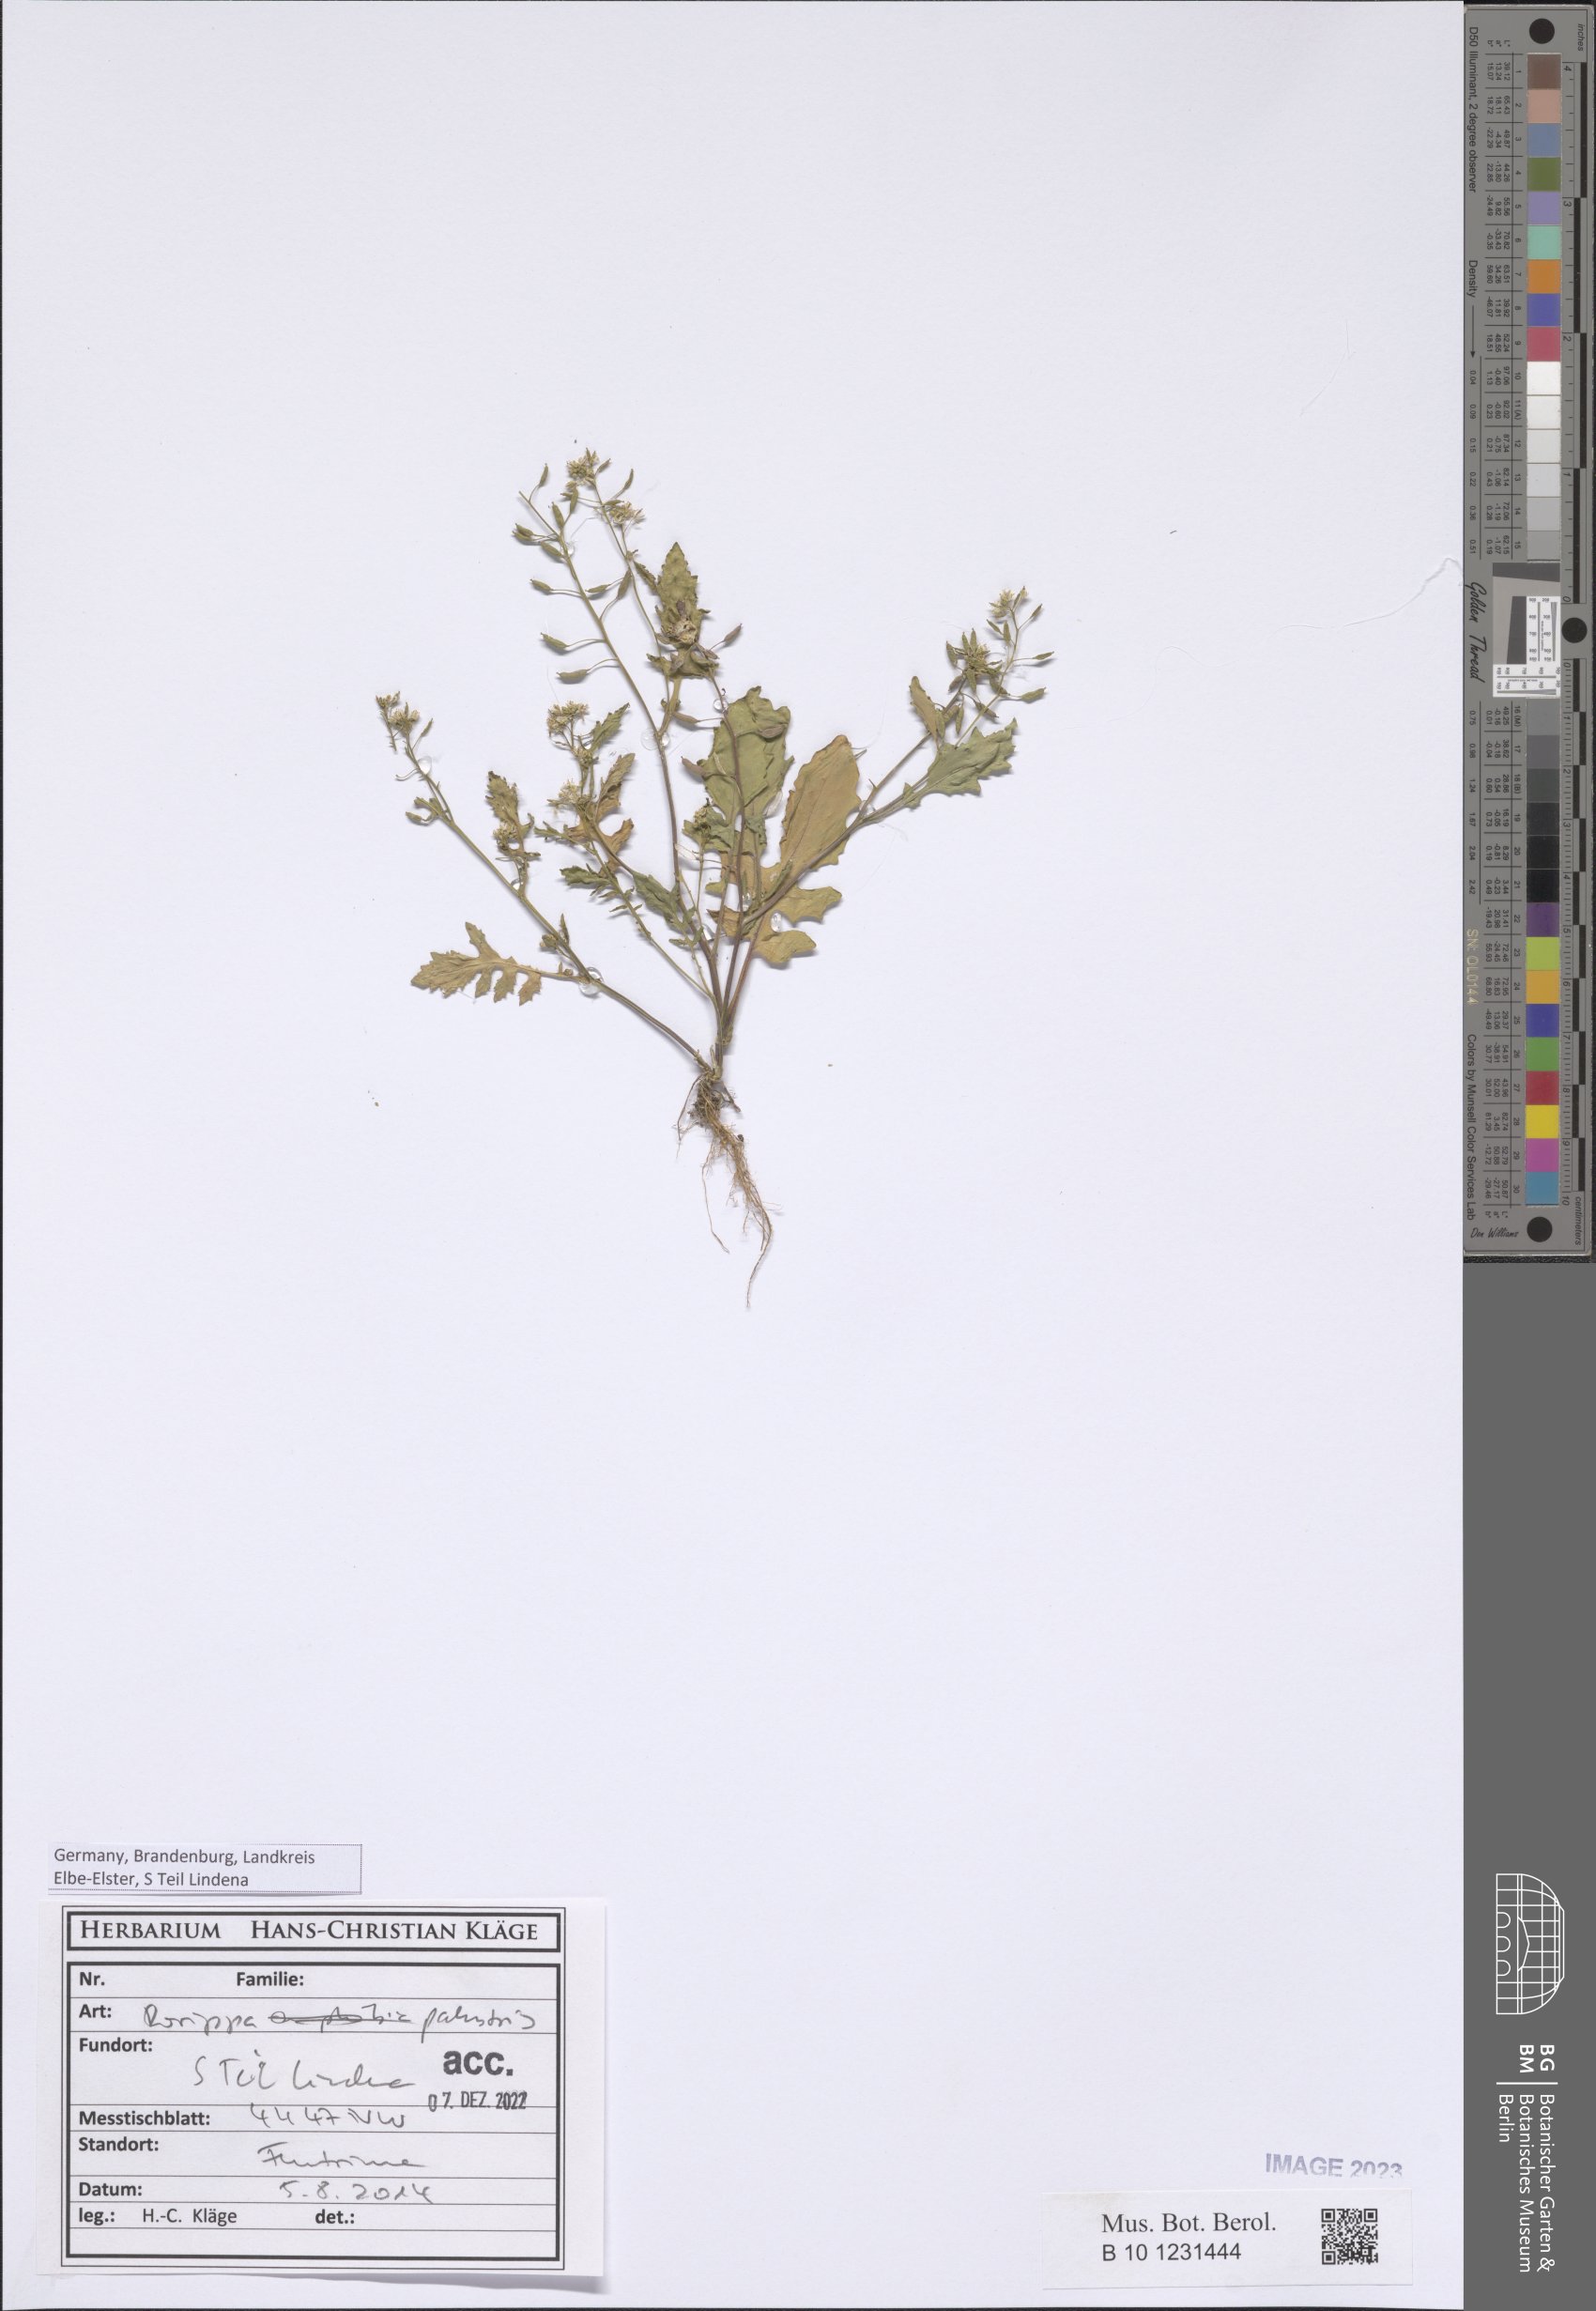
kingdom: Plantae
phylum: Tracheophyta
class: Magnoliopsida
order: Brassicales
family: Brassicaceae
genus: Rorippa
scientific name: Rorippa palustris
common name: Marsh yellow-cress
